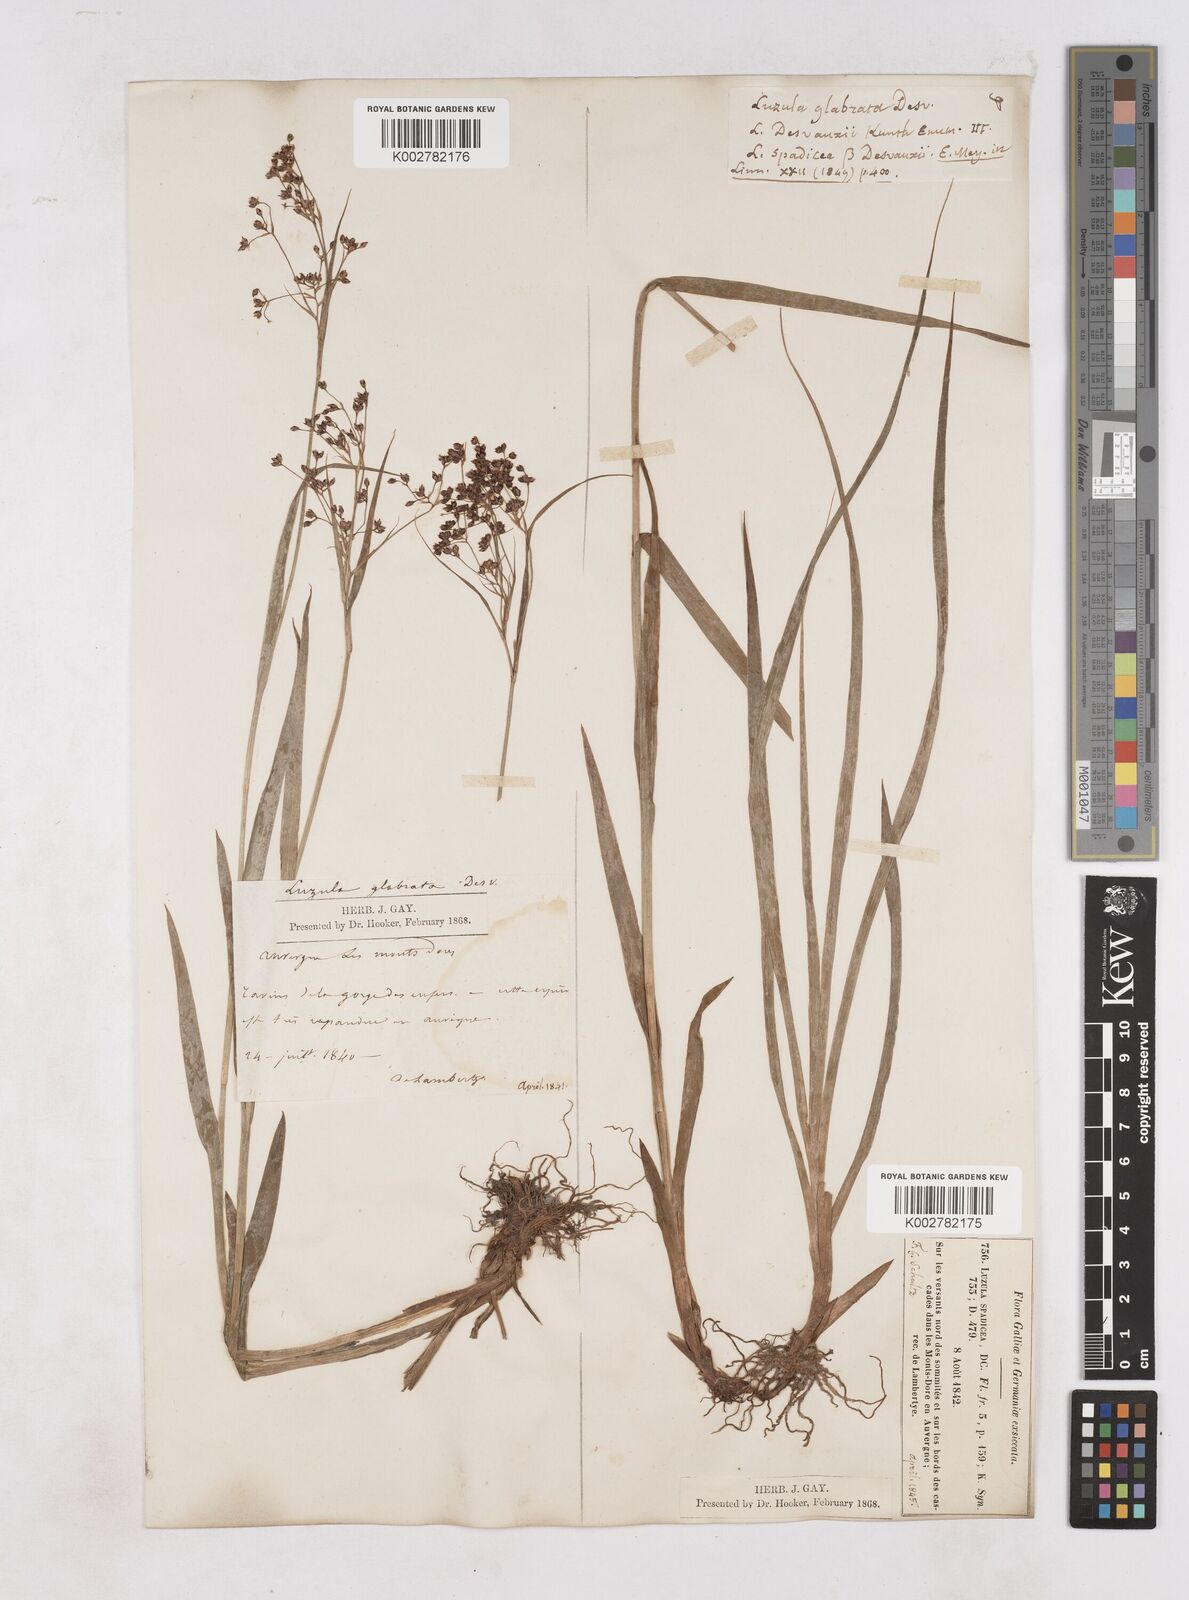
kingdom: Plantae
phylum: Tracheophyta
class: Liliopsida
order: Poales
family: Juncaceae
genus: Luzula
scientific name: Luzula glabrata
